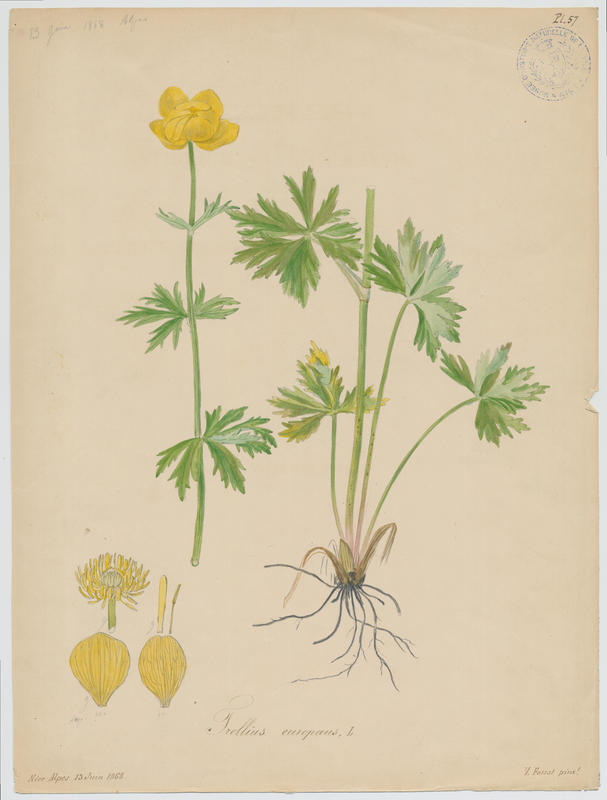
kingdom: Plantae
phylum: Tracheophyta
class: Magnoliopsida
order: Ranunculales
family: Ranunculaceae
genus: Trollius
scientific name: Trollius europaeus
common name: European globeflower
